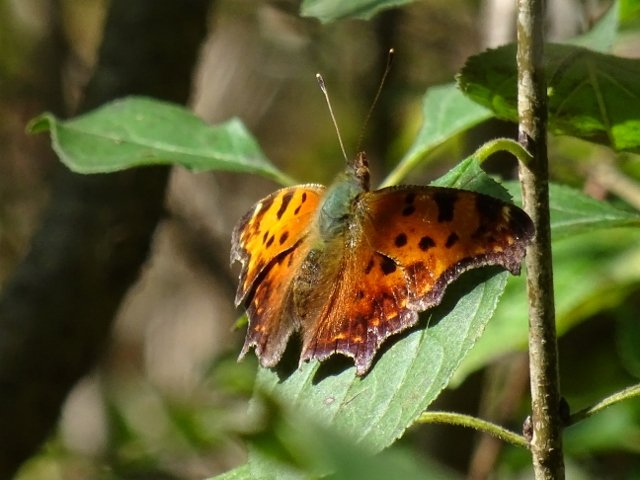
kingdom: Animalia
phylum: Arthropoda
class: Insecta
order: Lepidoptera
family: Nymphalidae
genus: Polygonia
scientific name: Polygonia comma
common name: Eastern Comma
